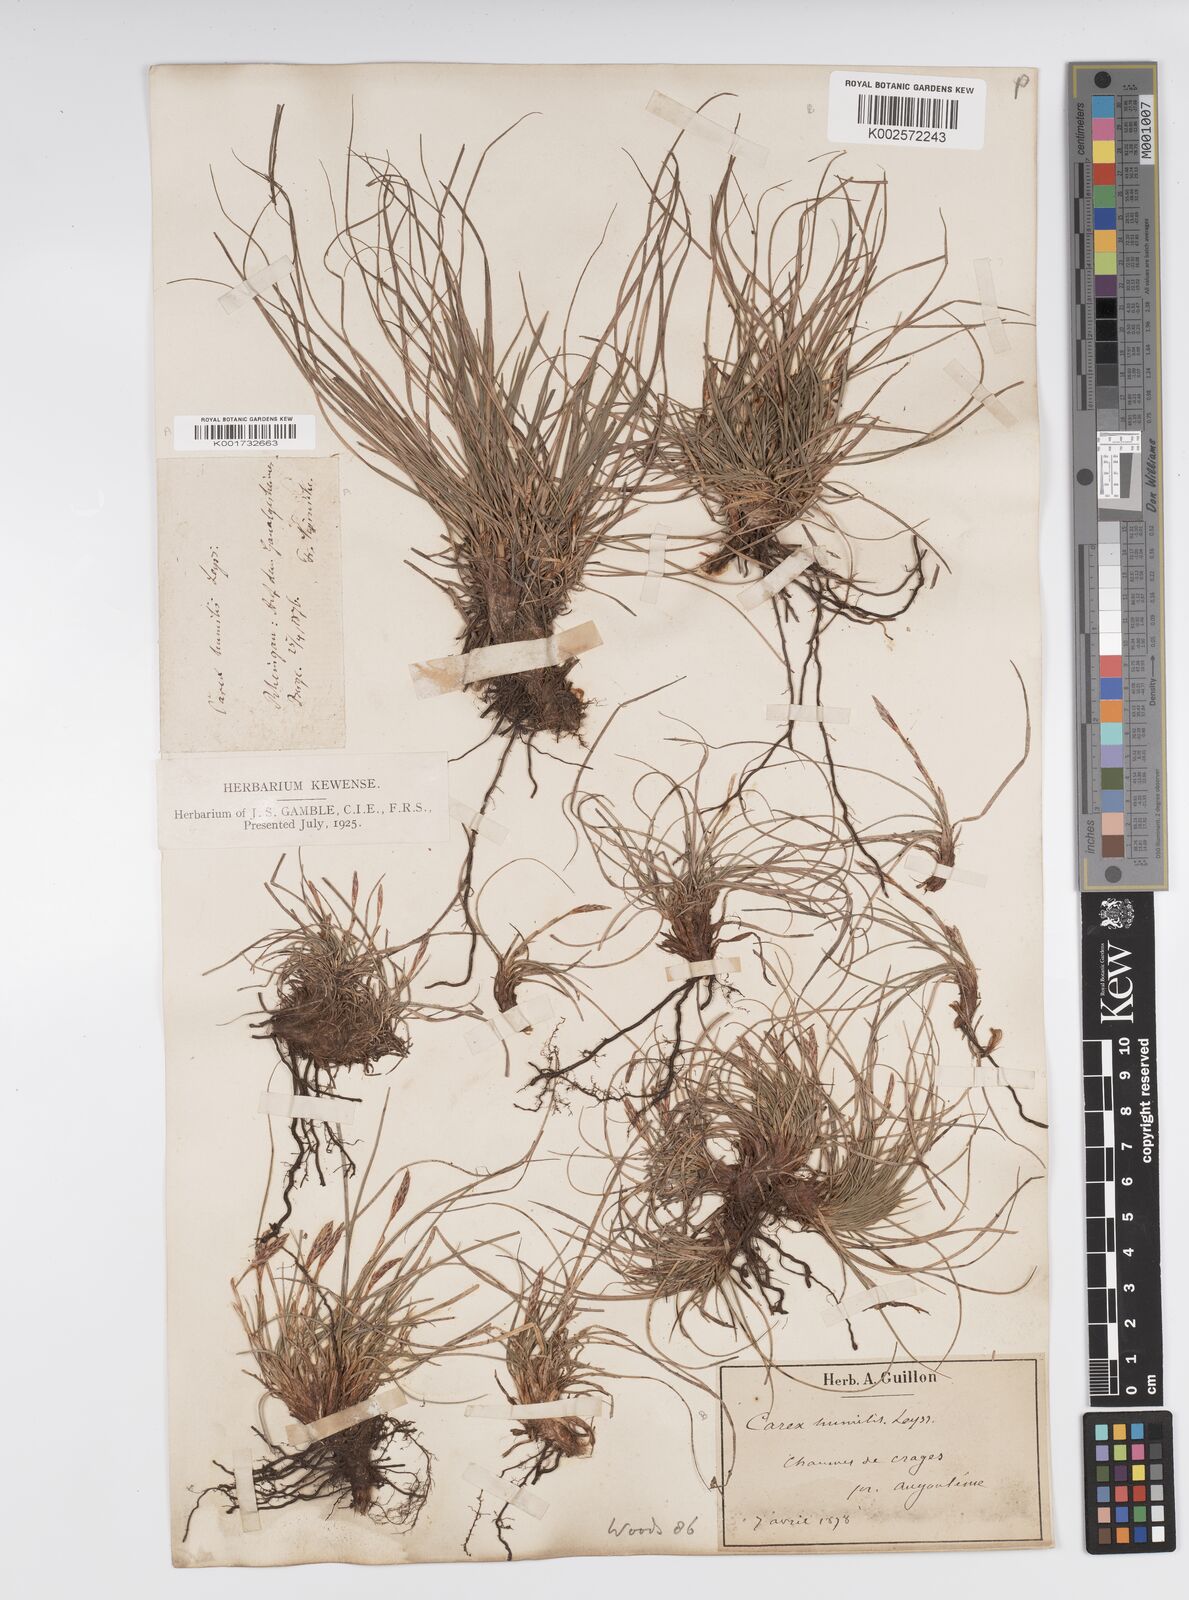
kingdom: Plantae
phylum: Tracheophyta
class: Liliopsida
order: Poales
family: Cyperaceae
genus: Carex
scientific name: Carex humilis
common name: Dwarf sedge
